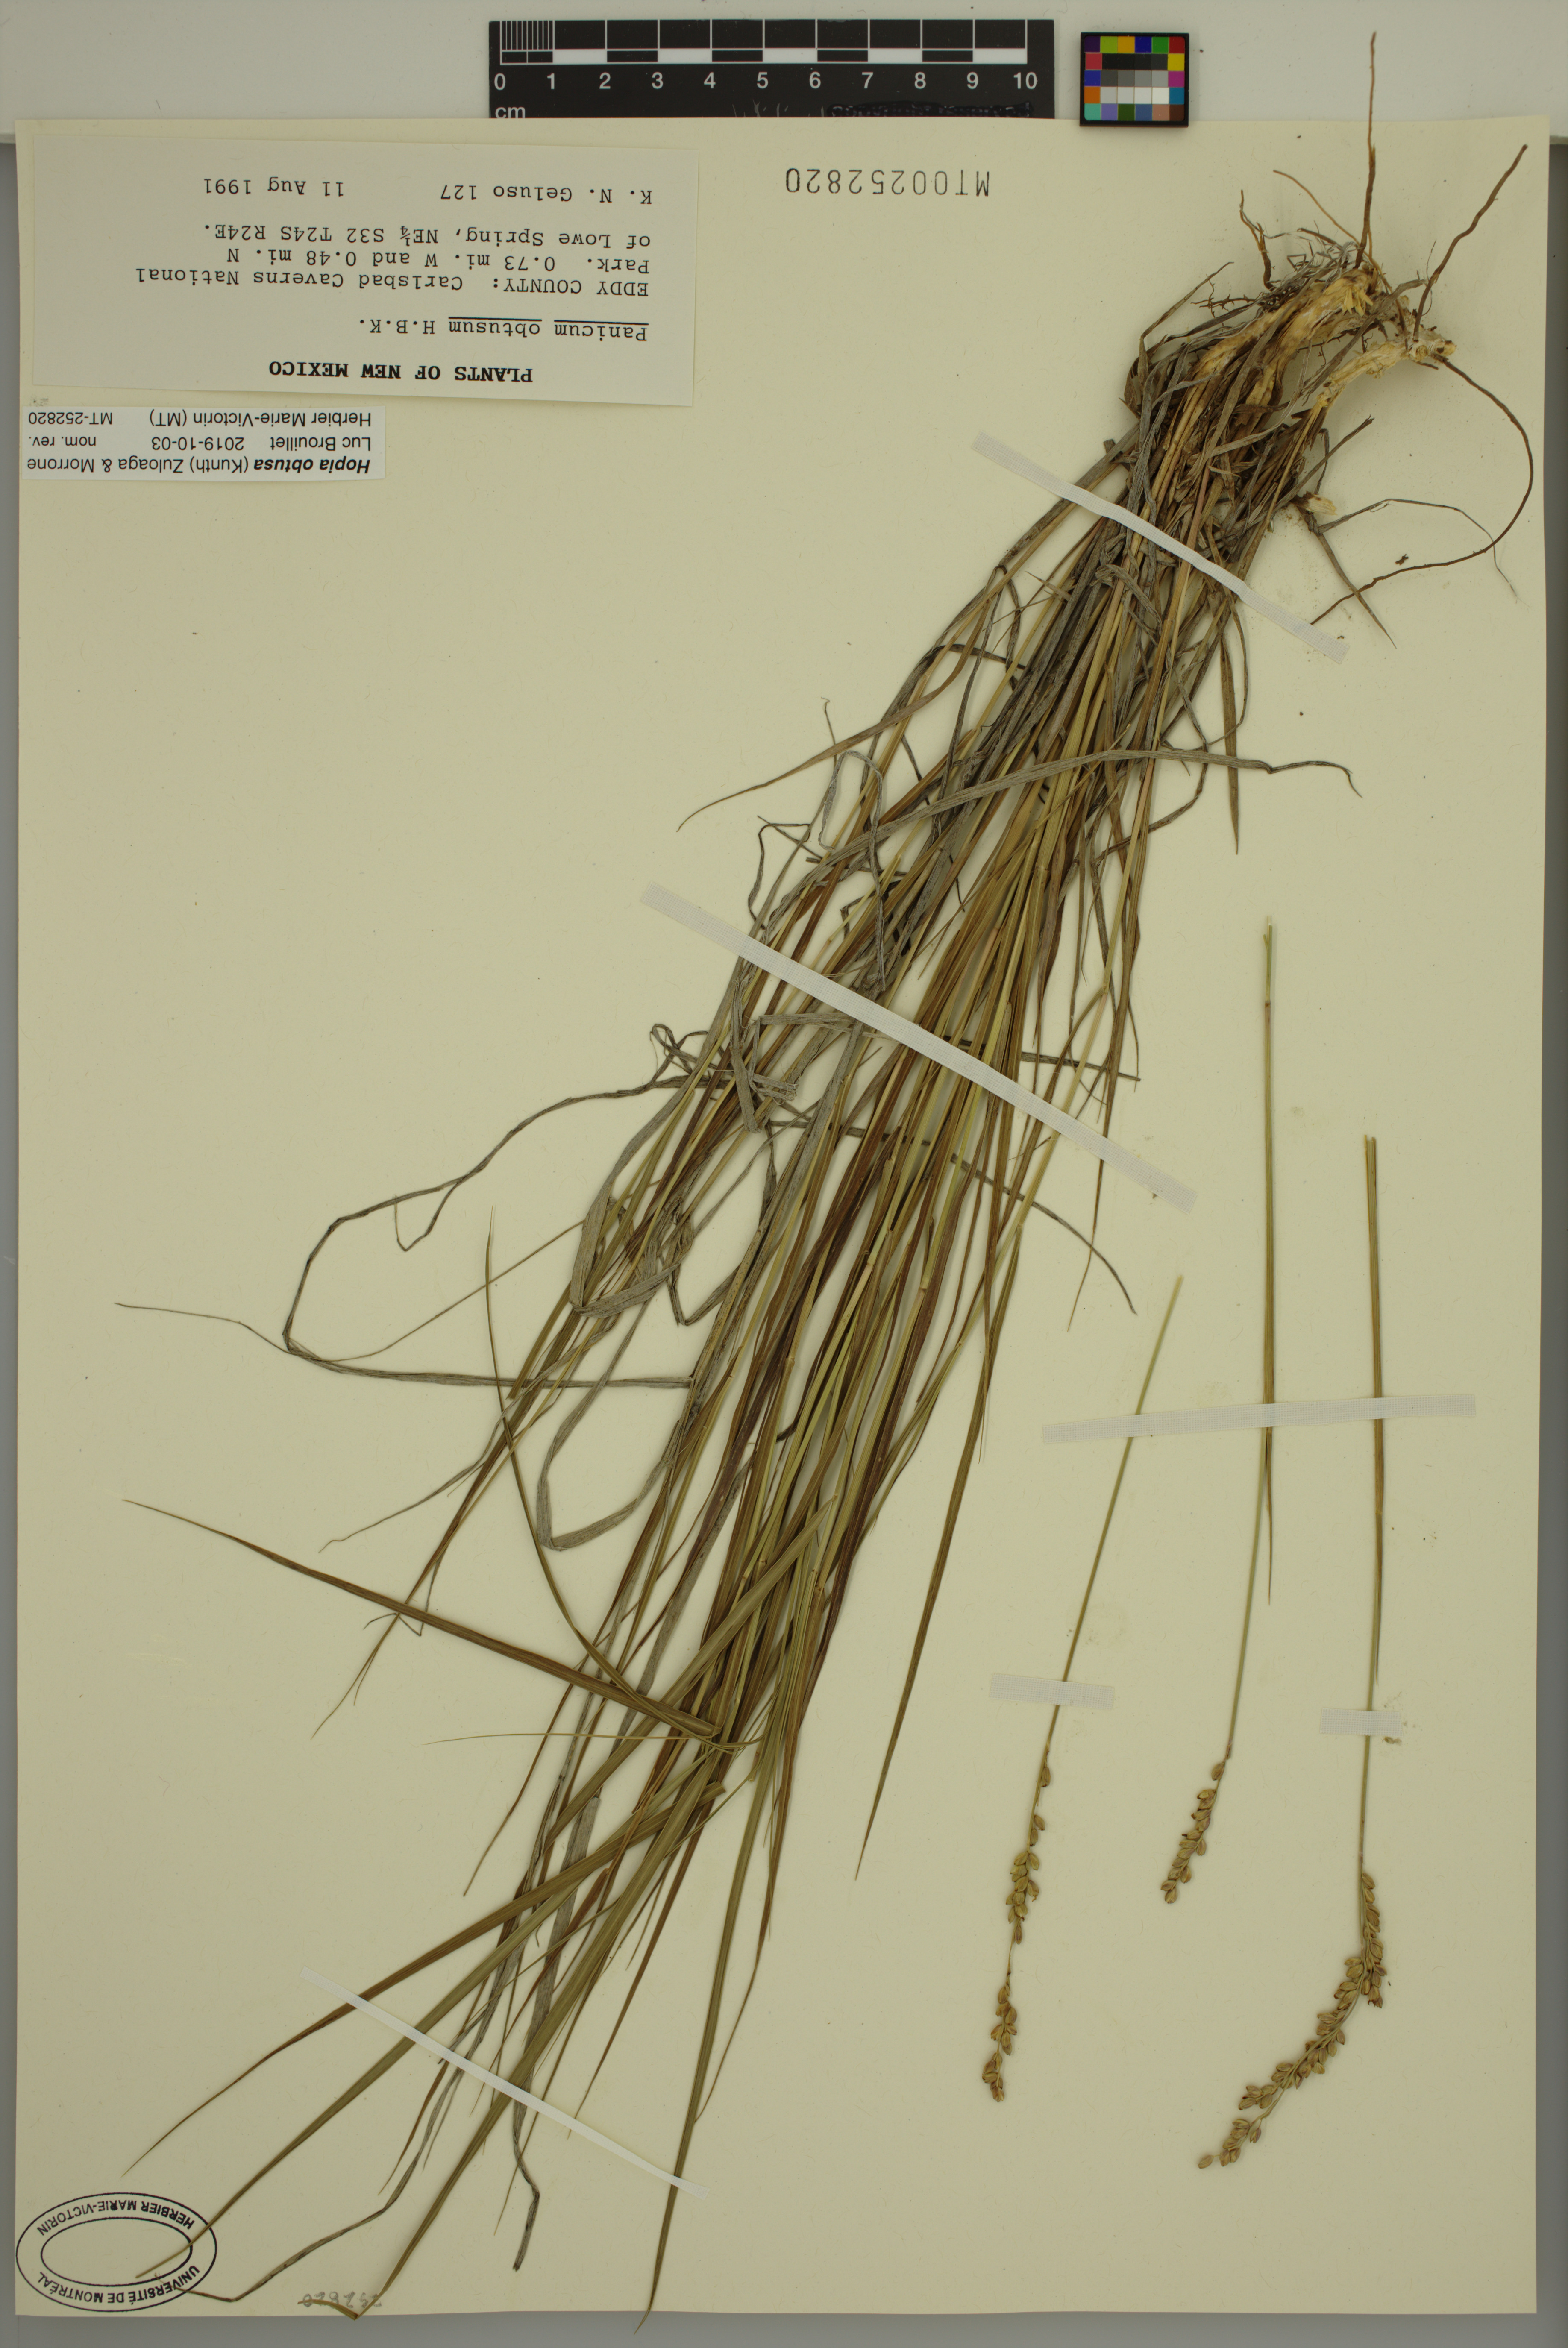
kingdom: Plantae
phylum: Tracheophyta
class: Liliopsida
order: Poales
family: Poaceae
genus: Hopia
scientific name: Hopia obtusa
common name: Vine-mesquite
